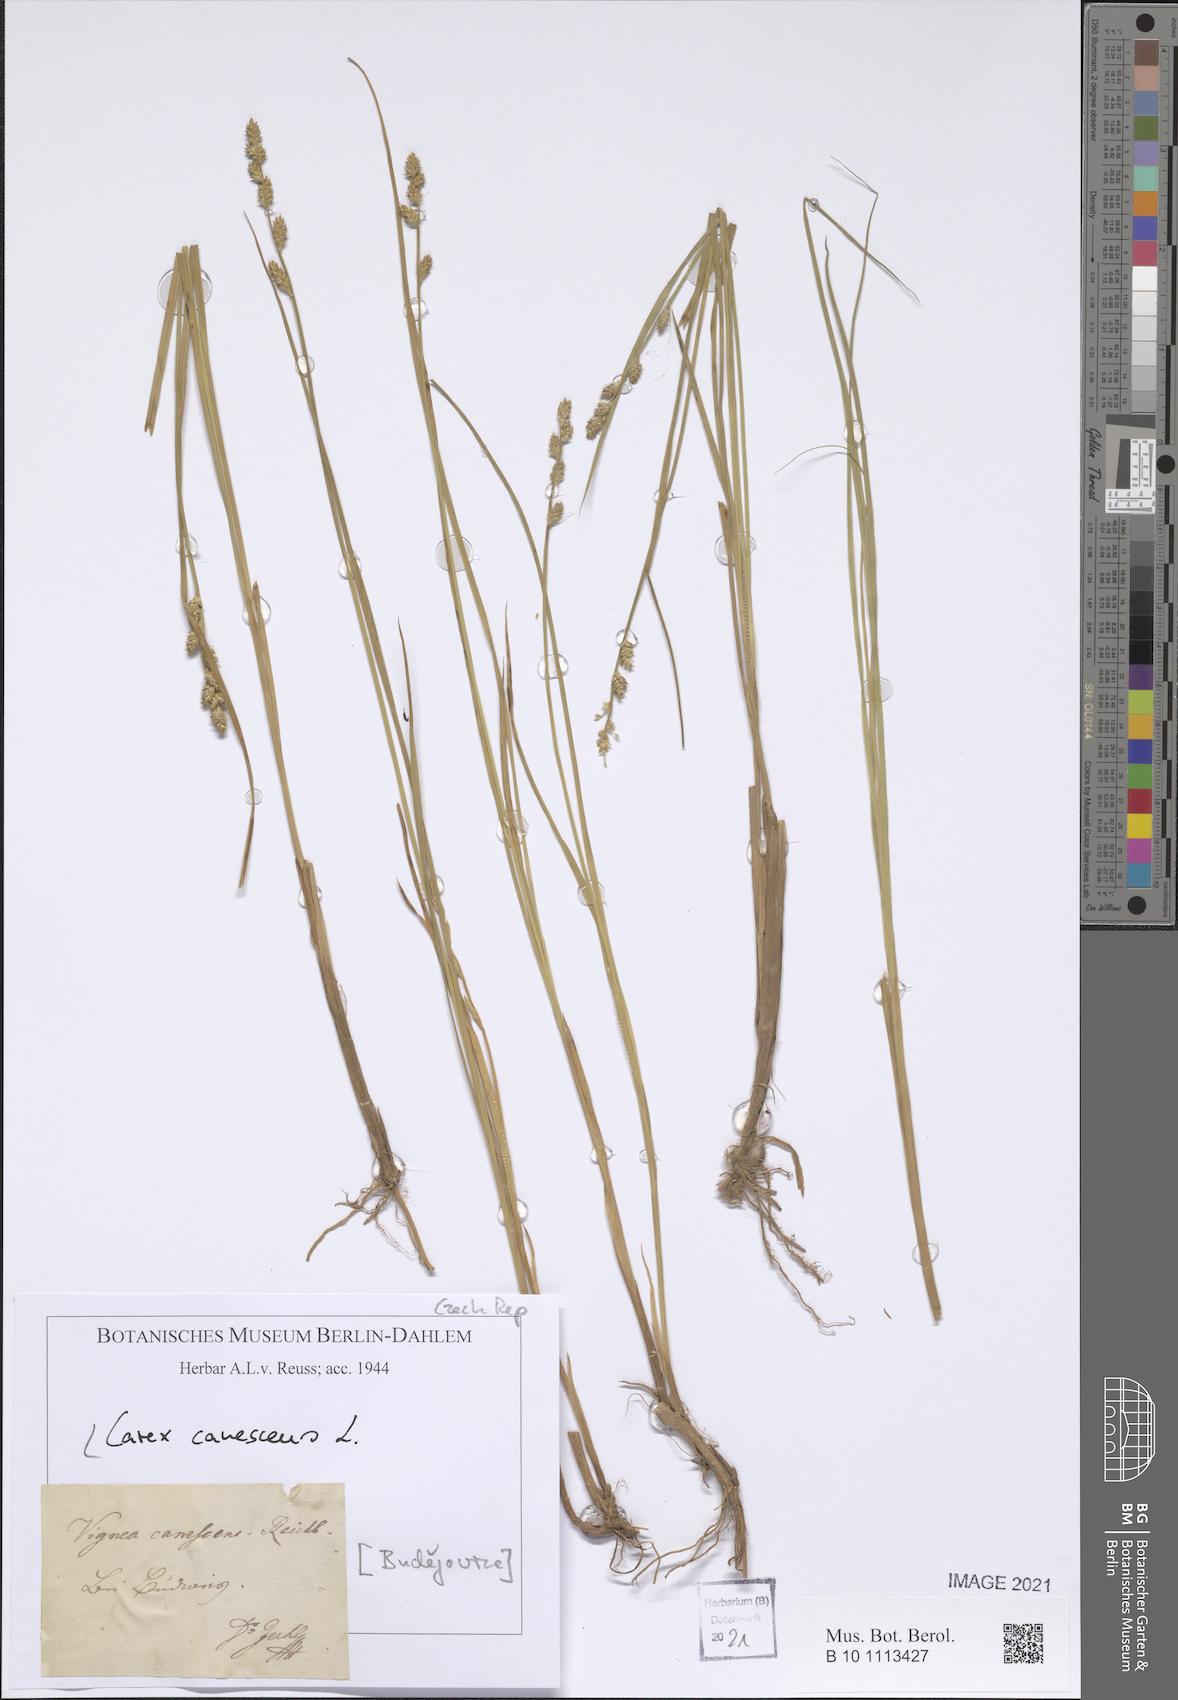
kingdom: Plantae
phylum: Tracheophyta
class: Liliopsida
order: Poales
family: Cyperaceae
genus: Carex
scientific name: Carex canescens
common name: White sedge
